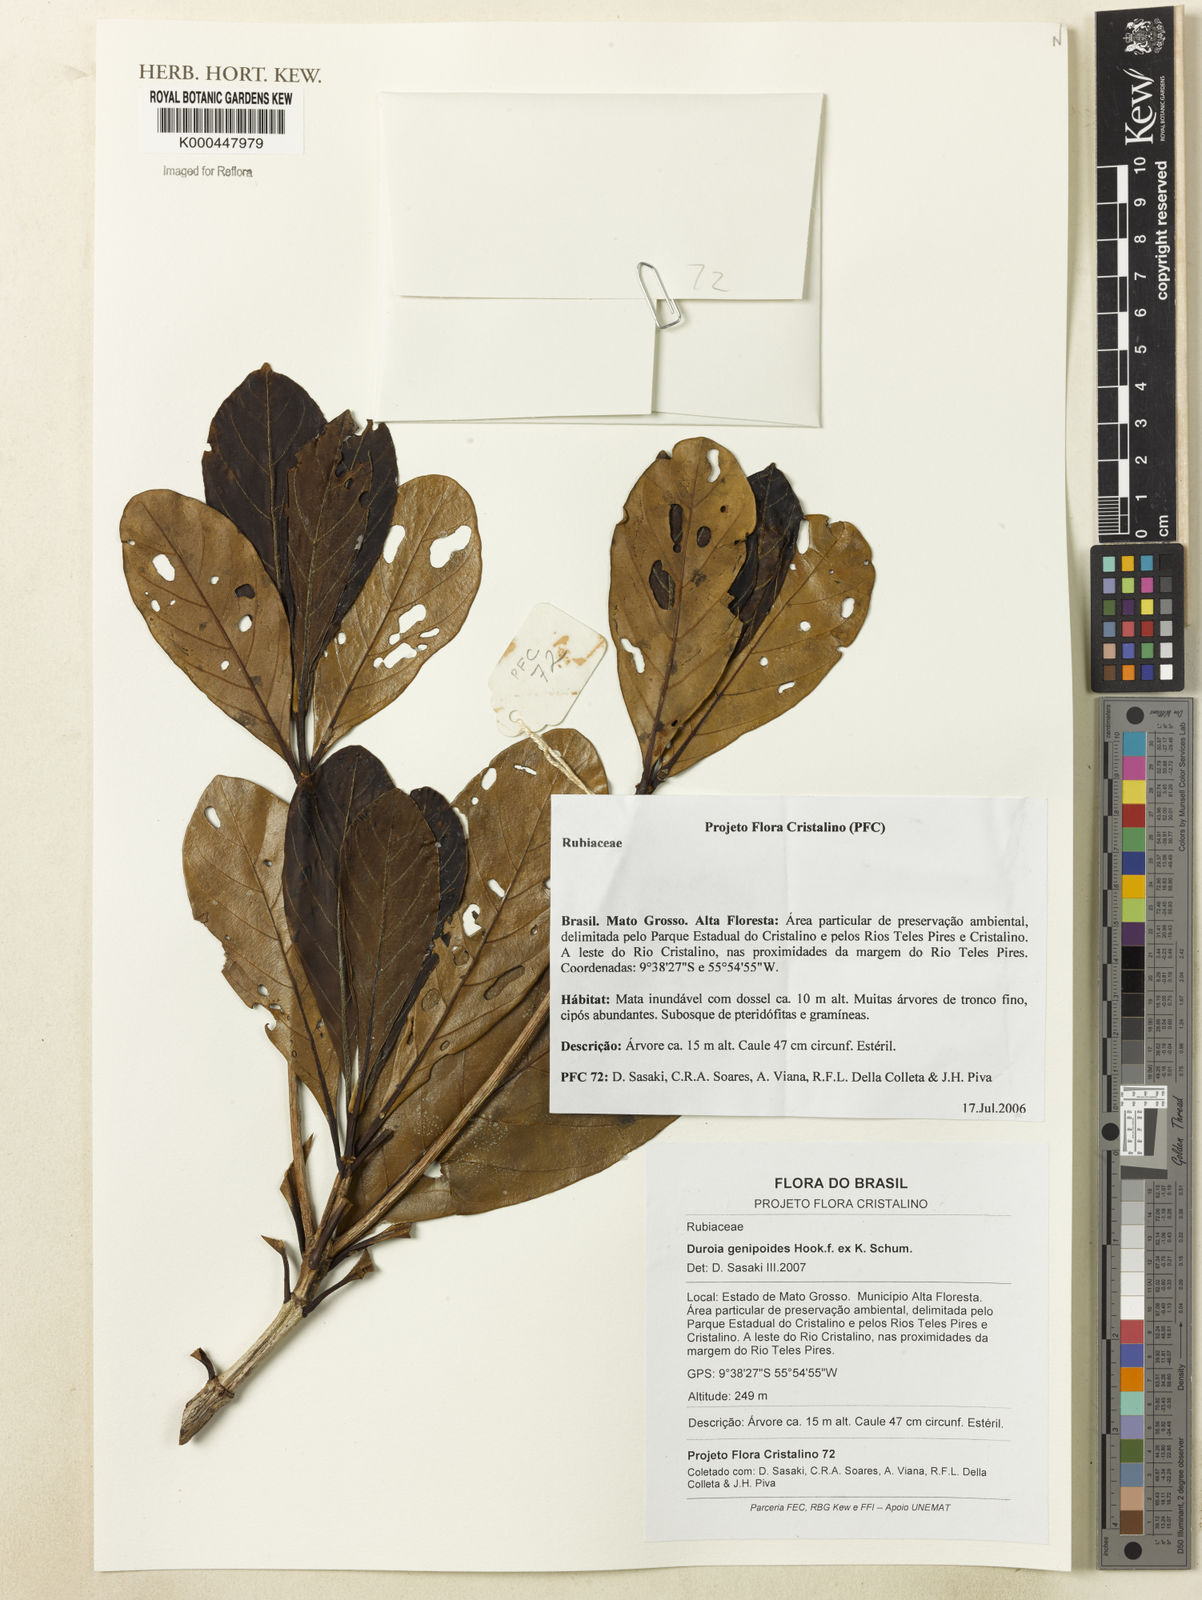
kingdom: Plantae
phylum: Tracheophyta
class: Magnoliopsida
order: Gentianales
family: Rubiaceae
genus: Duroia
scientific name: Duroia genipoides
